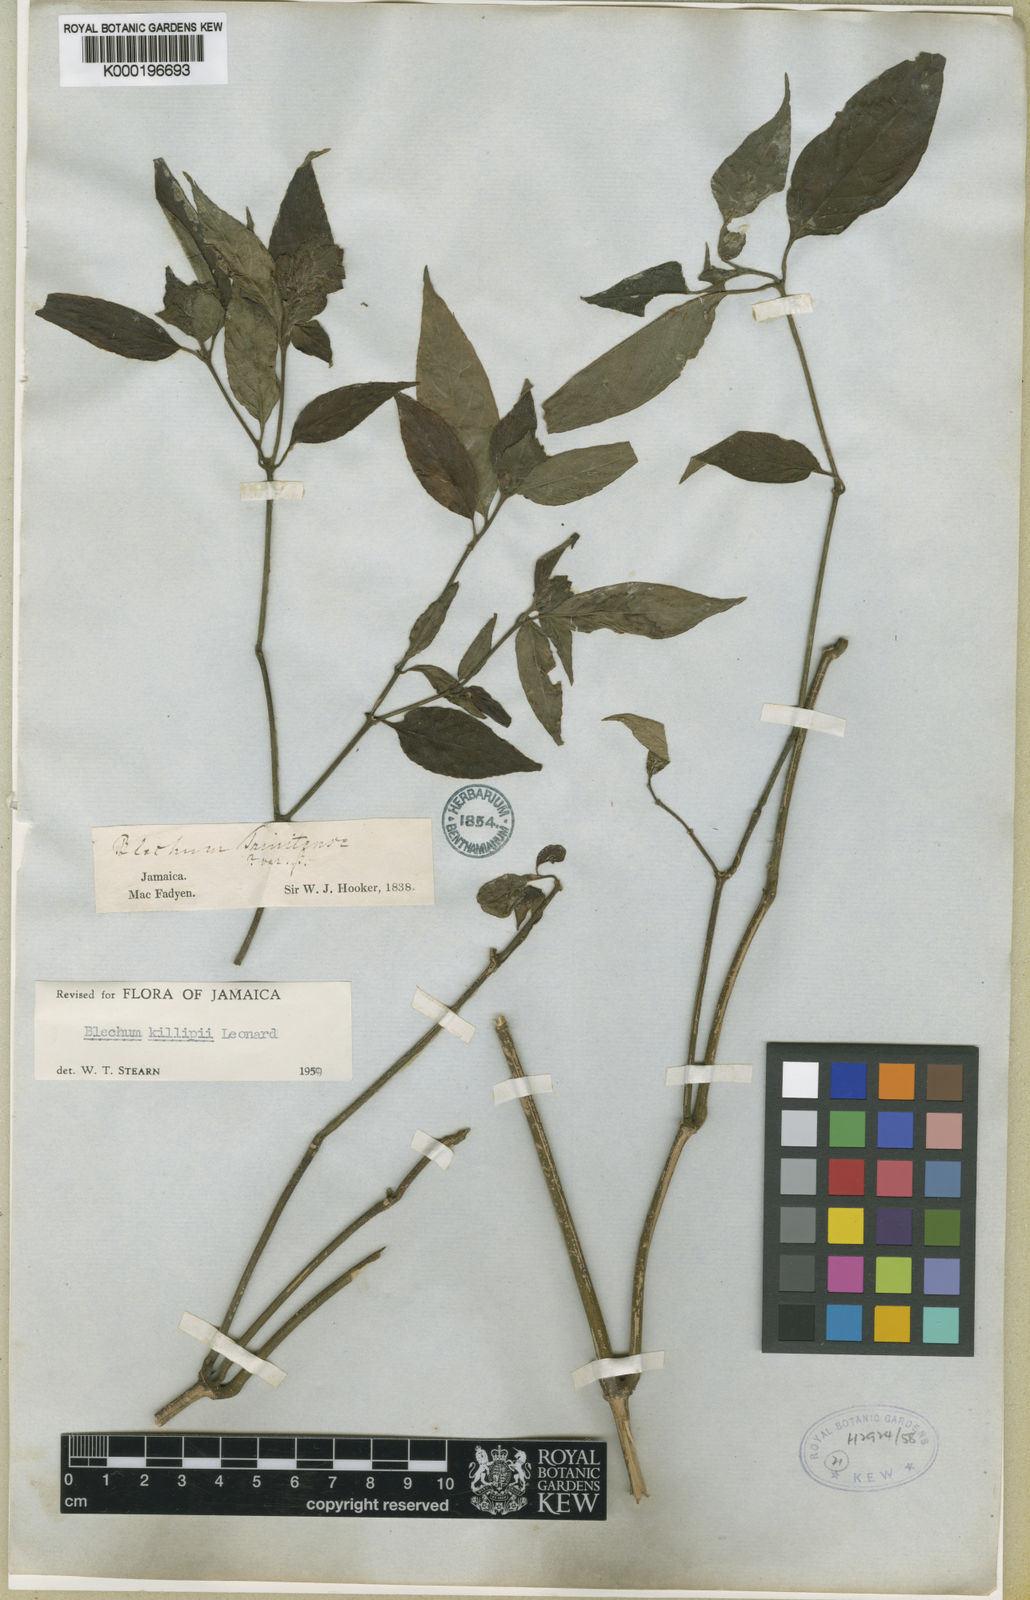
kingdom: Plantae
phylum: Tracheophyta
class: Magnoliopsida
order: Lamiales
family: Acanthaceae
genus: Ruellia
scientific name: Ruellia blechioides
